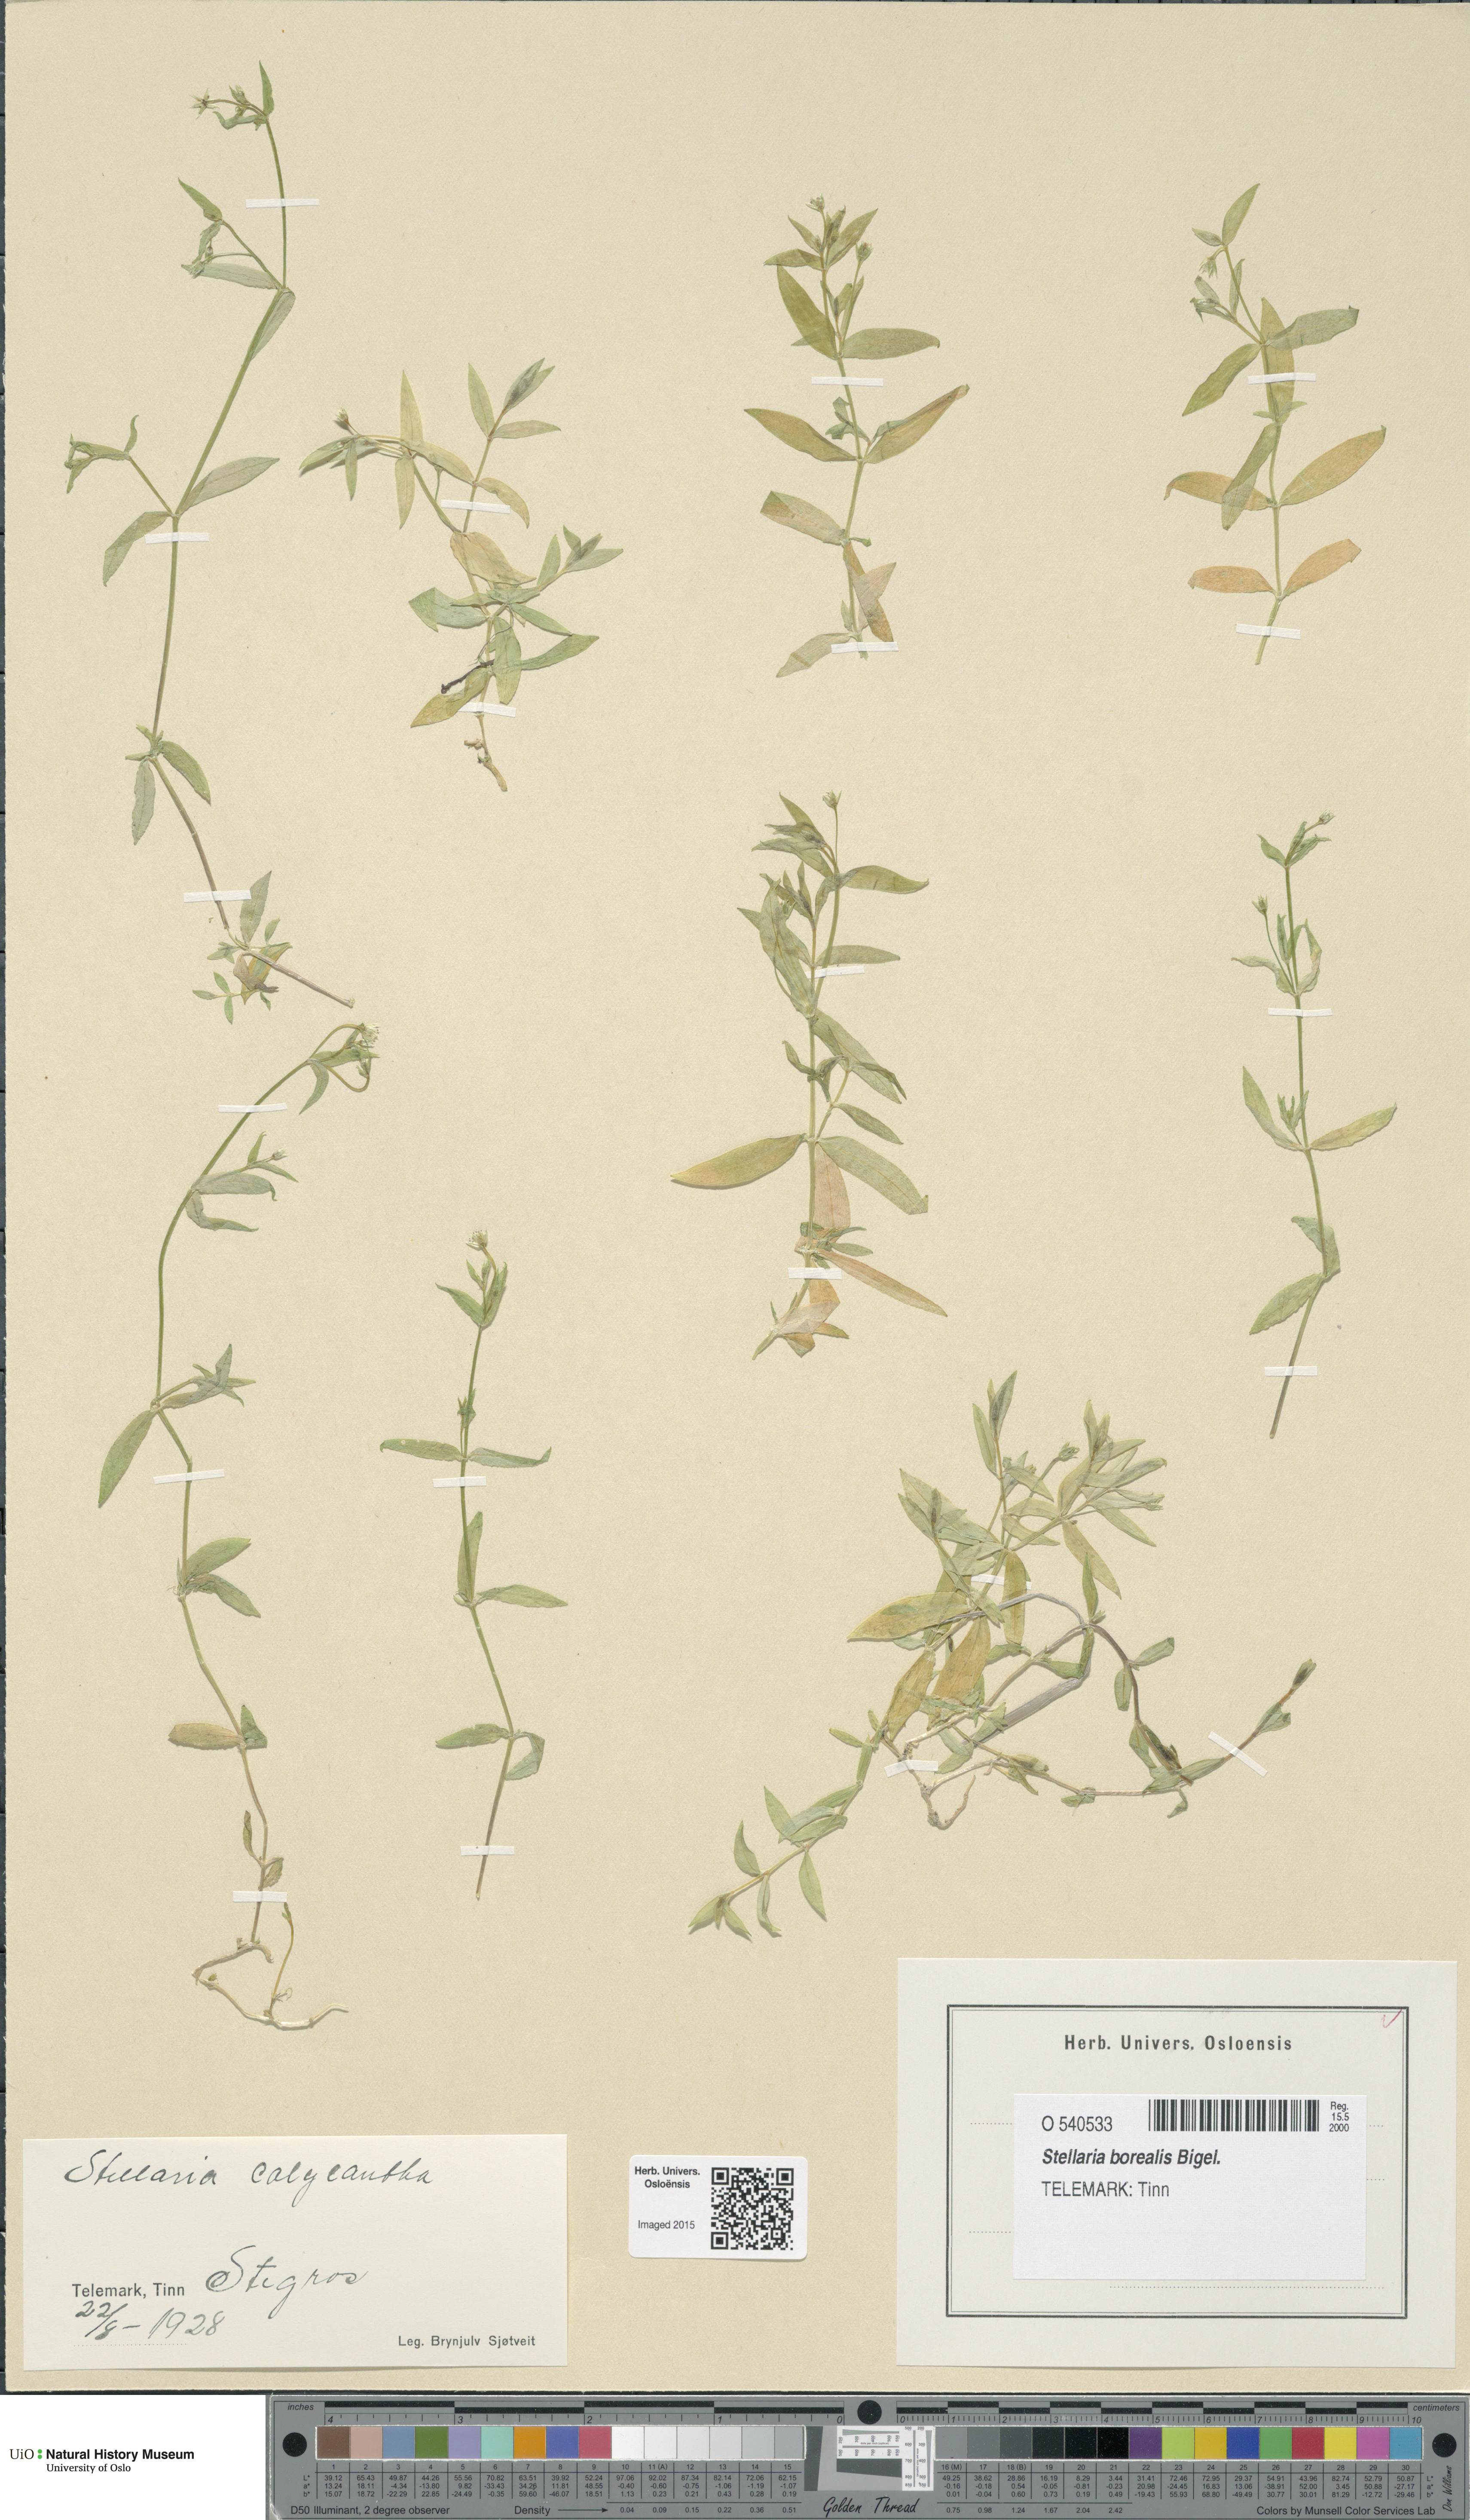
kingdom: Plantae
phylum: Tracheophyta
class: Magnoliopsida
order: Caryophyllales
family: Caryophyllaceae
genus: Stellaria
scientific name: Stellaria borealis
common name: Boreal starwort
